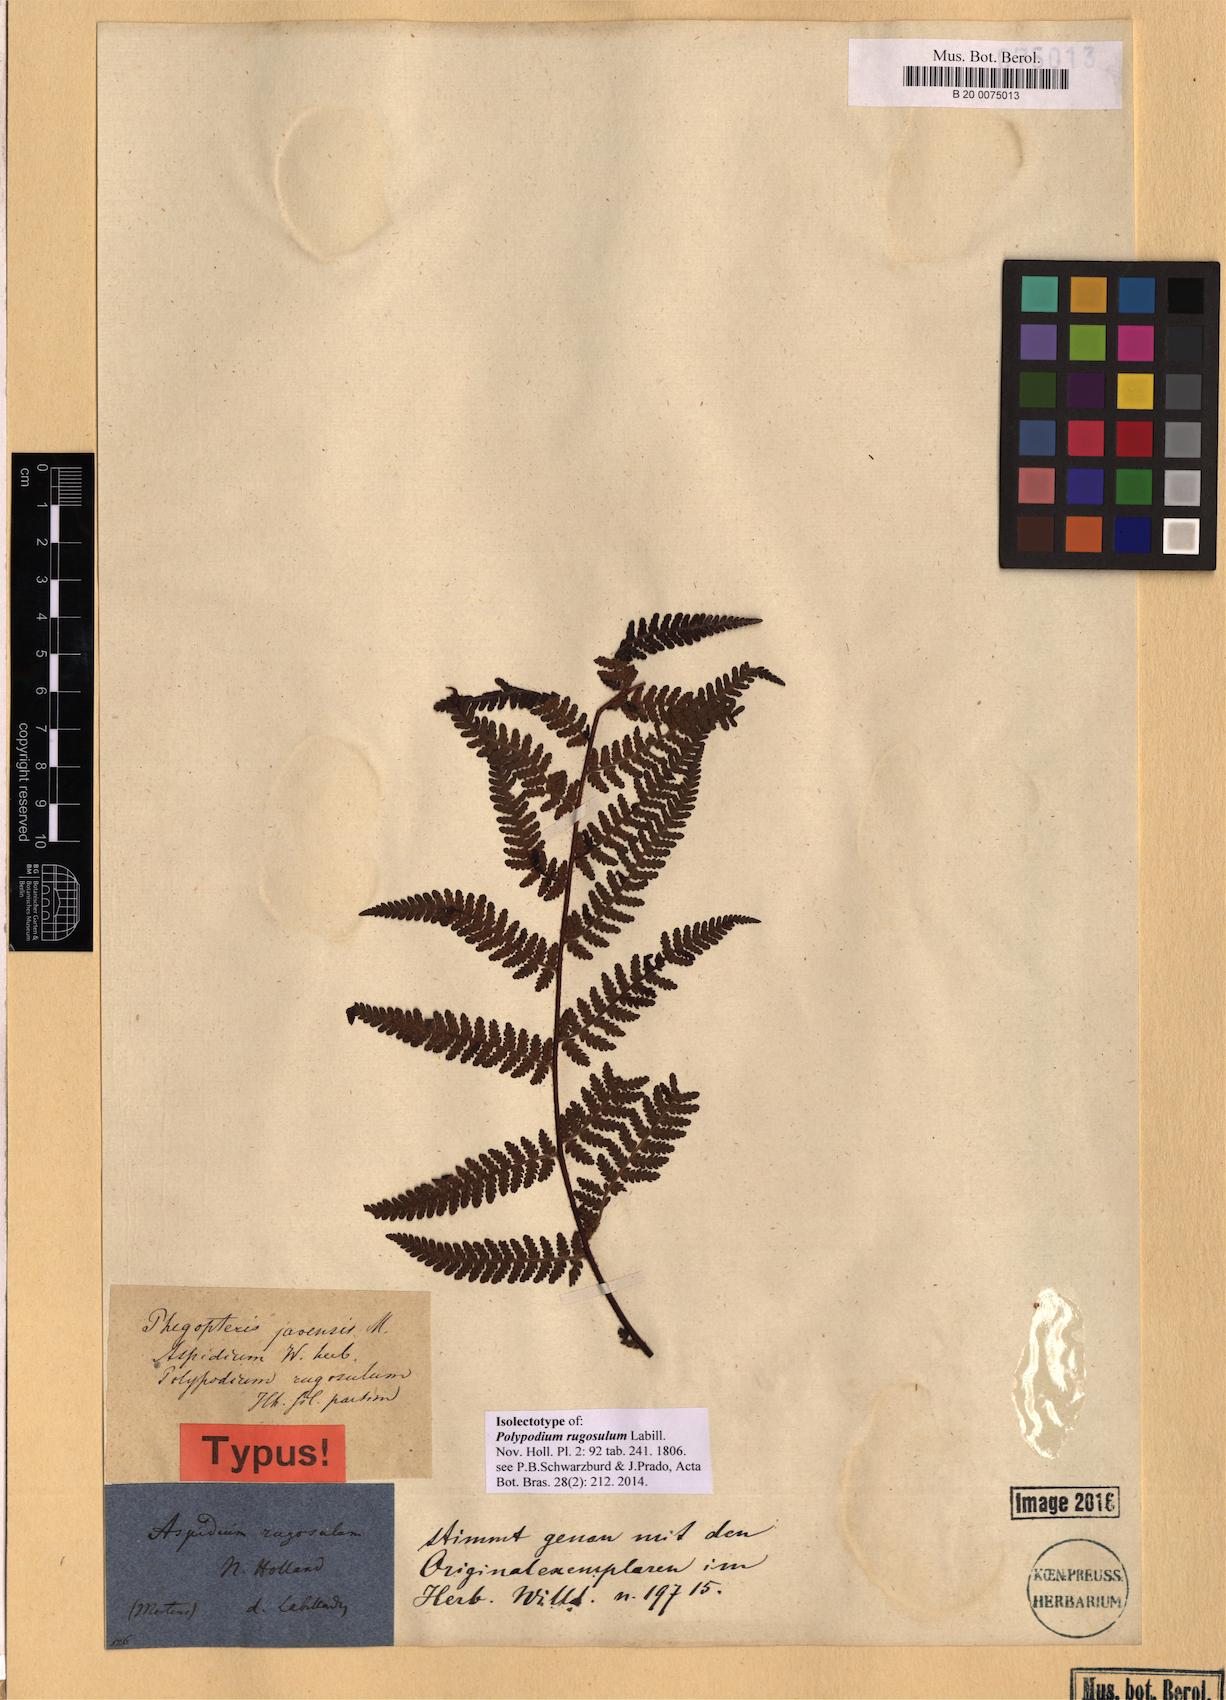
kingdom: Plantae
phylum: Tracheophyta
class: Polypodiopsida
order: Polypodiales
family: Dennstaedtiaceae
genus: Hypolepis
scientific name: Hypolepis rugosula
